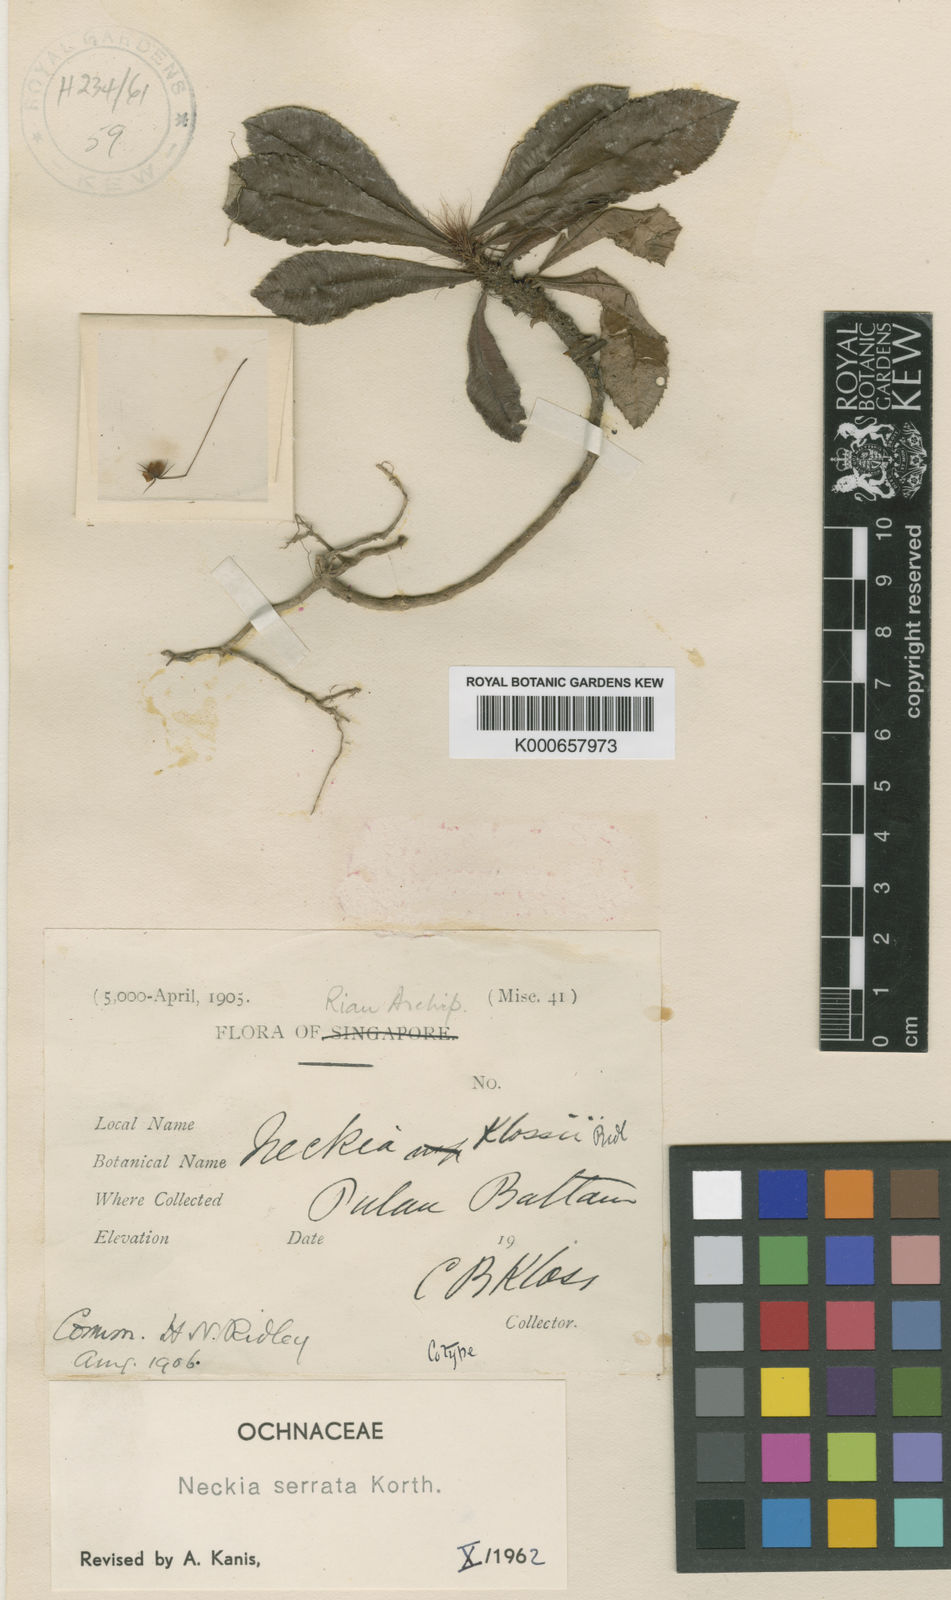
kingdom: Plantae
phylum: Tracheophyta
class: Magnoliopsida
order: Malpighiales
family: Ochnaceae
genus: Neckia
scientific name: Neckia serrata
